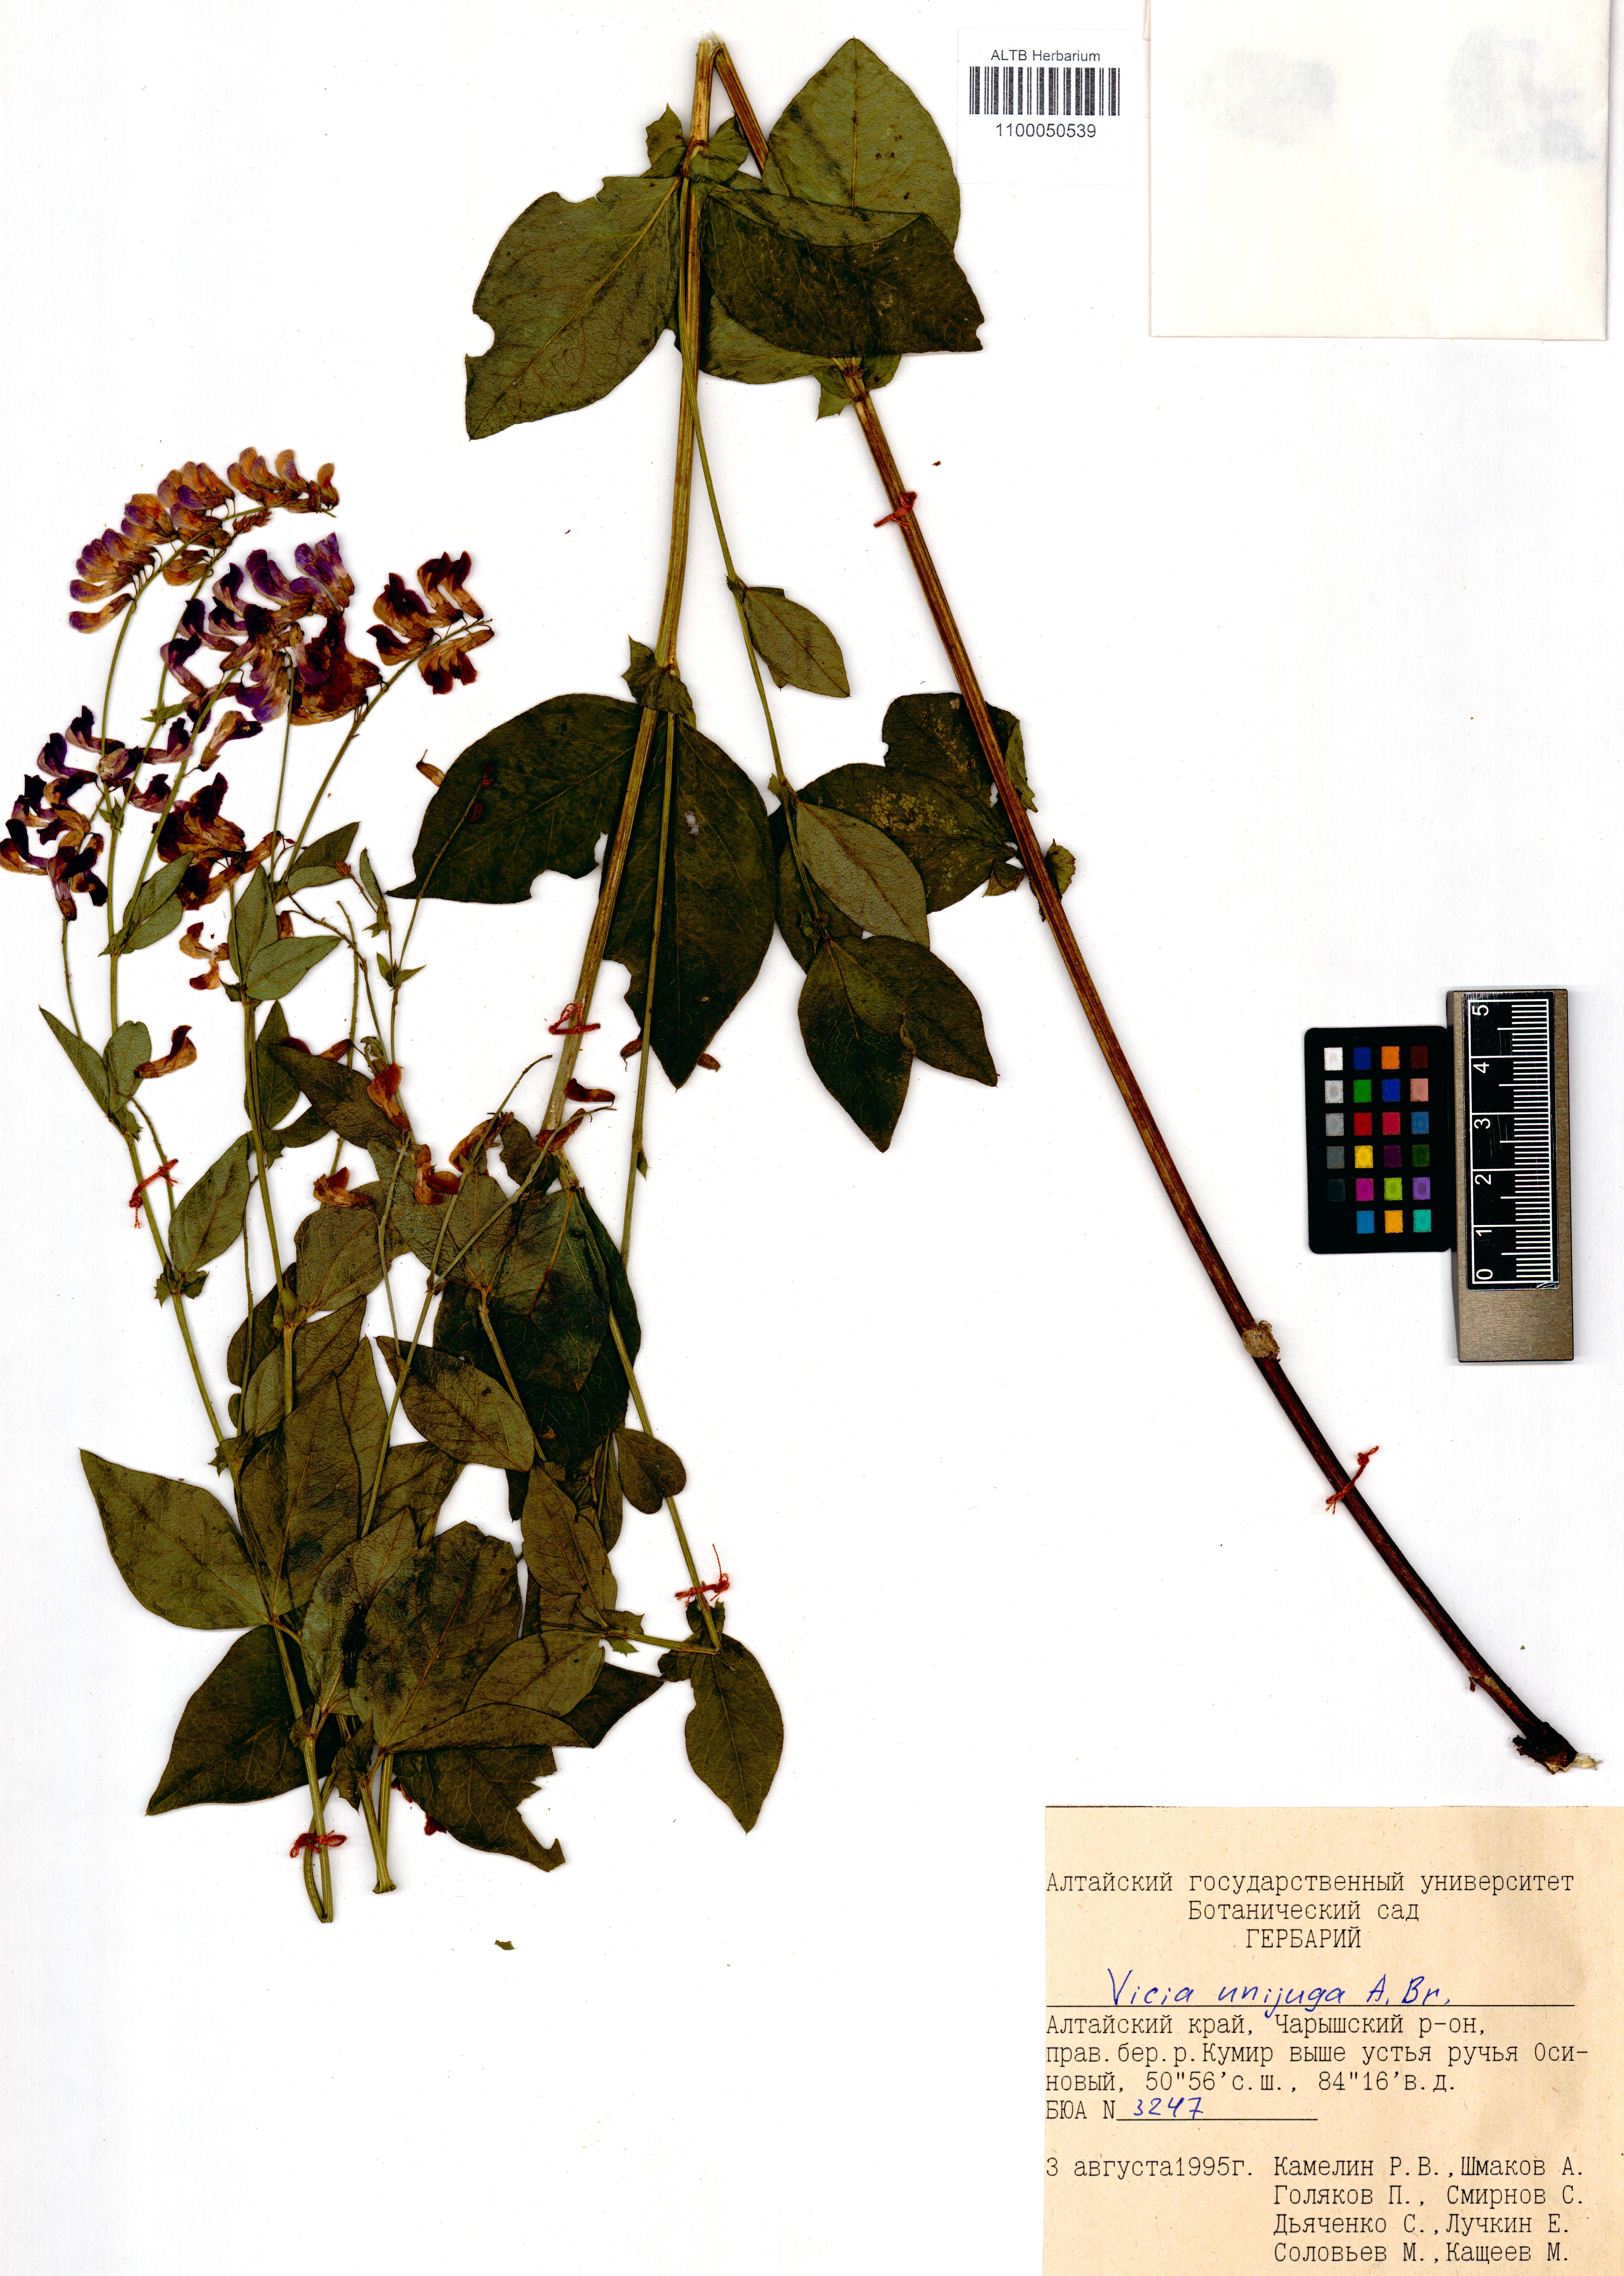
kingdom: Plantae
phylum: Tracheophyta
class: Magnoliopsida
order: Fabales
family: Fabaceae
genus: Vicia
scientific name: Vicia unijuga
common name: Two-leaf vetch
